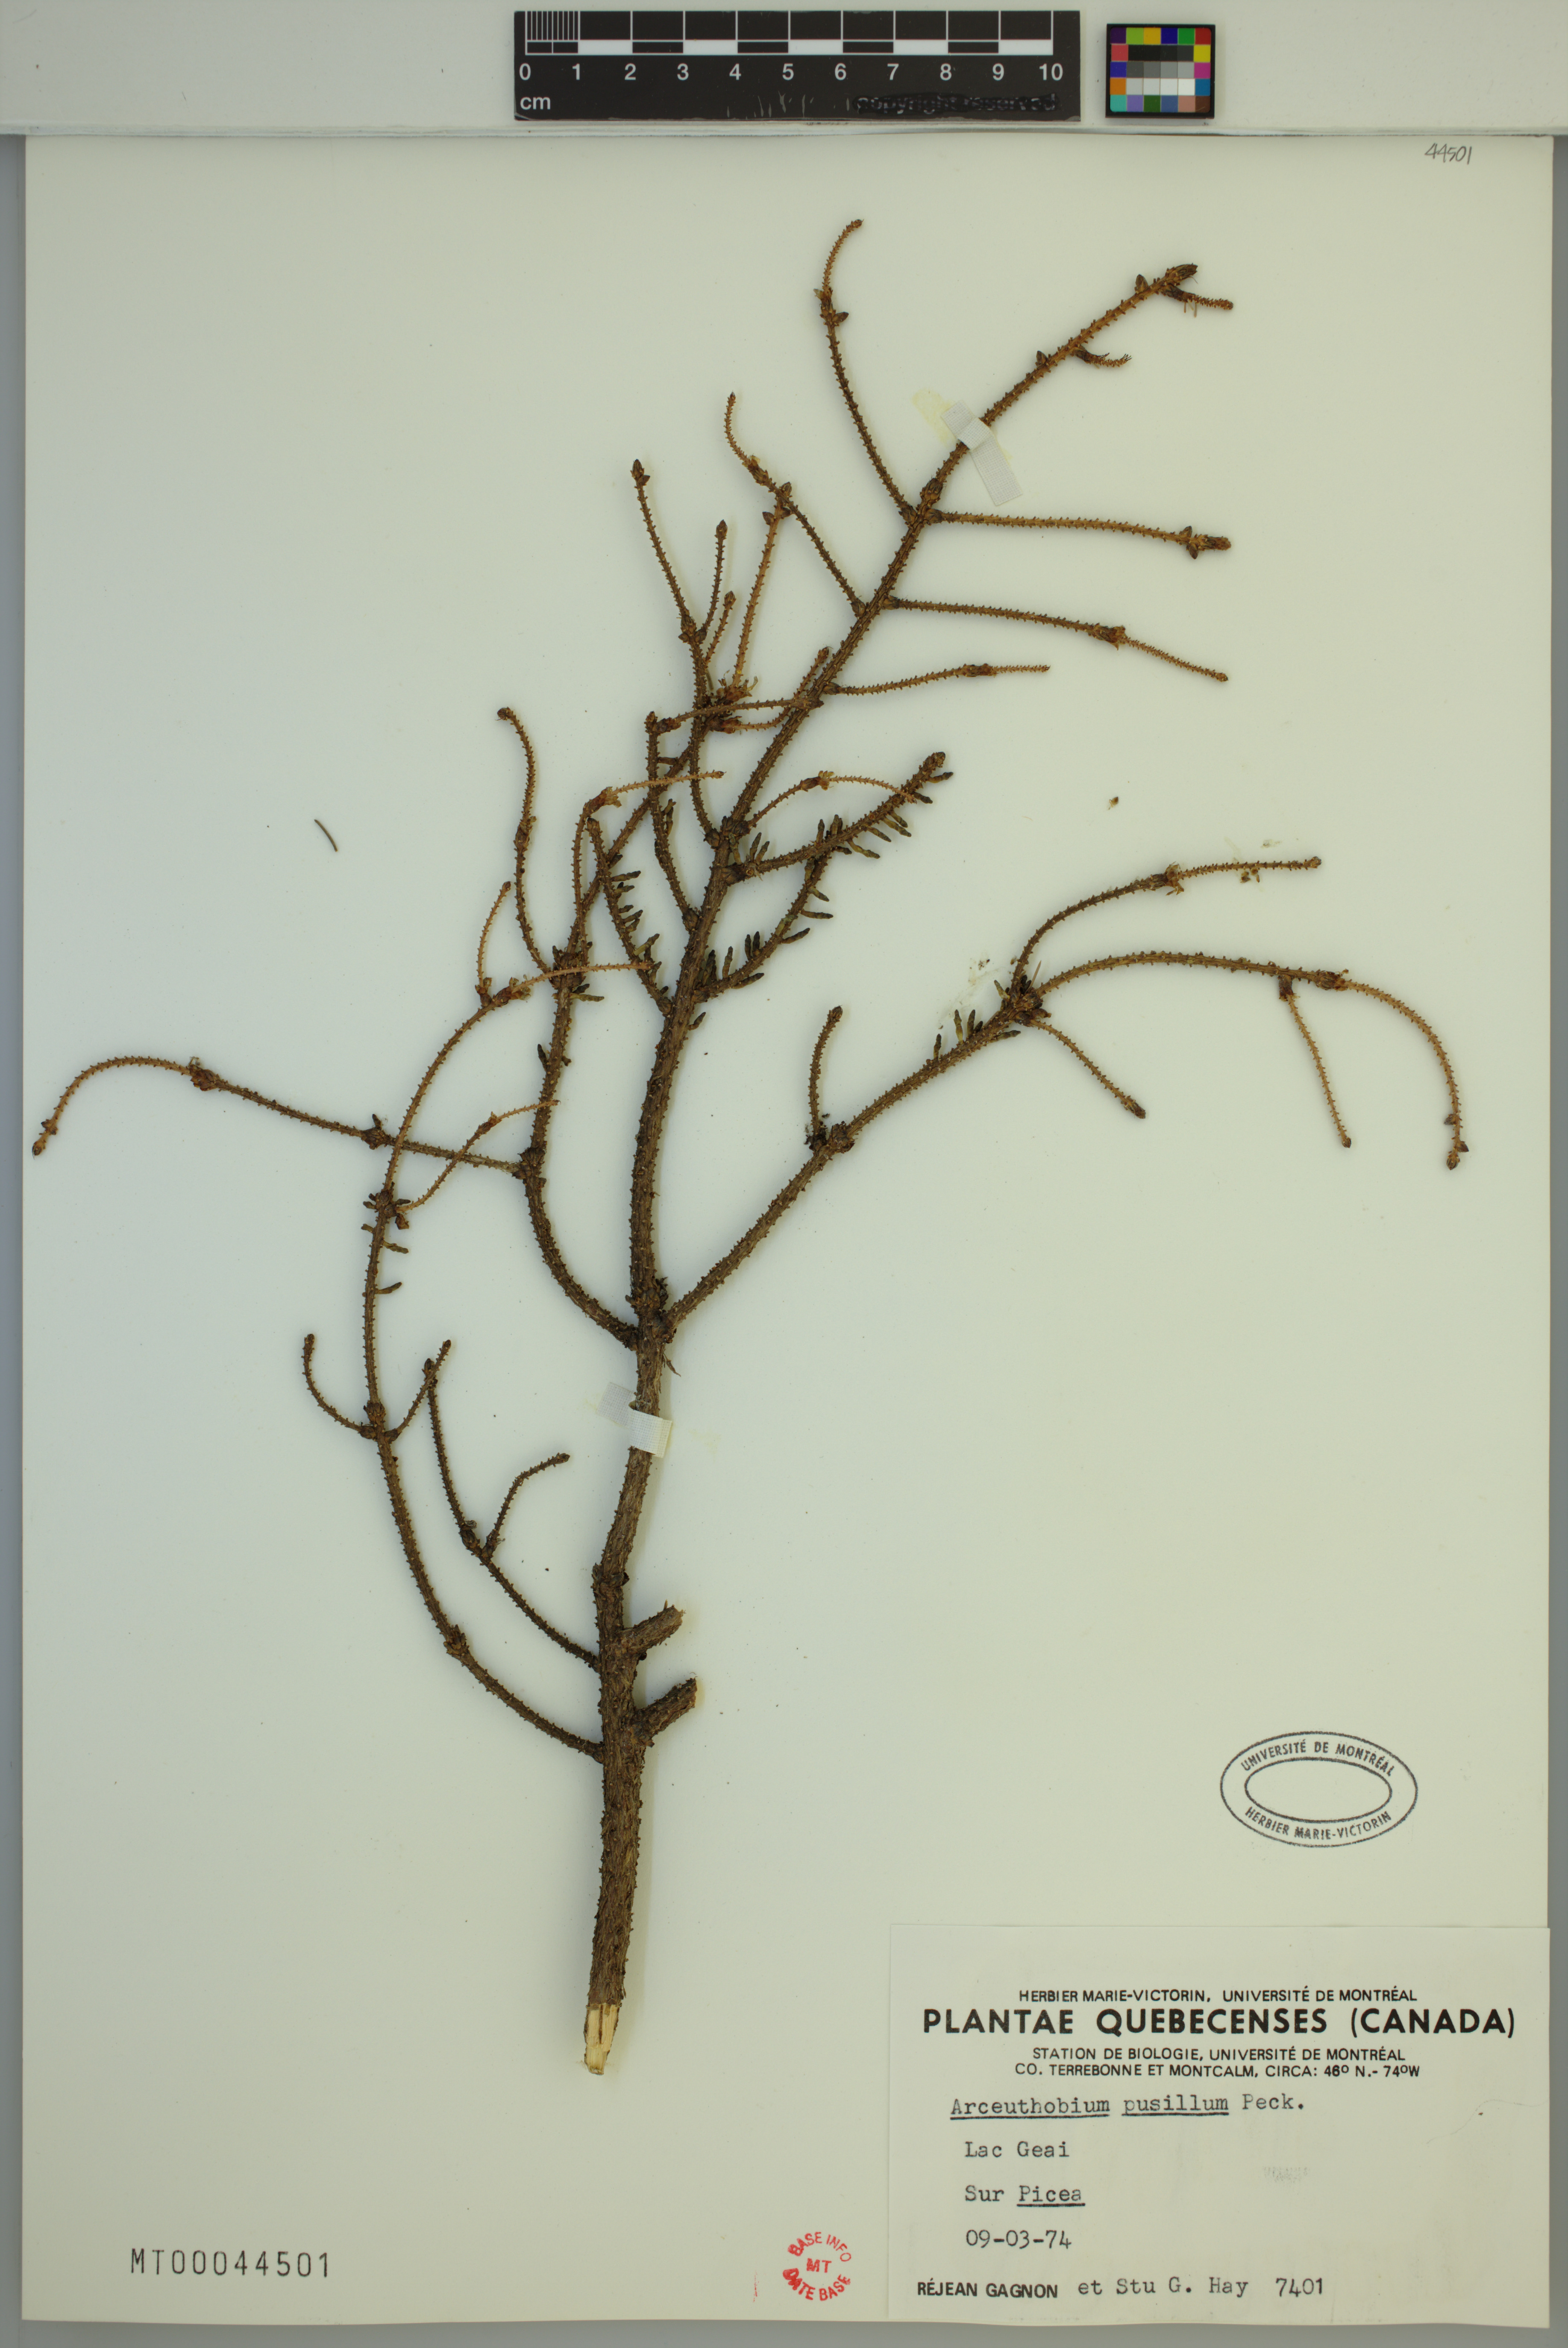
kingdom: Plantae
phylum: Tracheophyta
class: Magnoliopsida
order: Santalales
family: Viscaceae
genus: Arceuthobium
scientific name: Arceuthobium pusillum
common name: Dwarf-mistletoe
